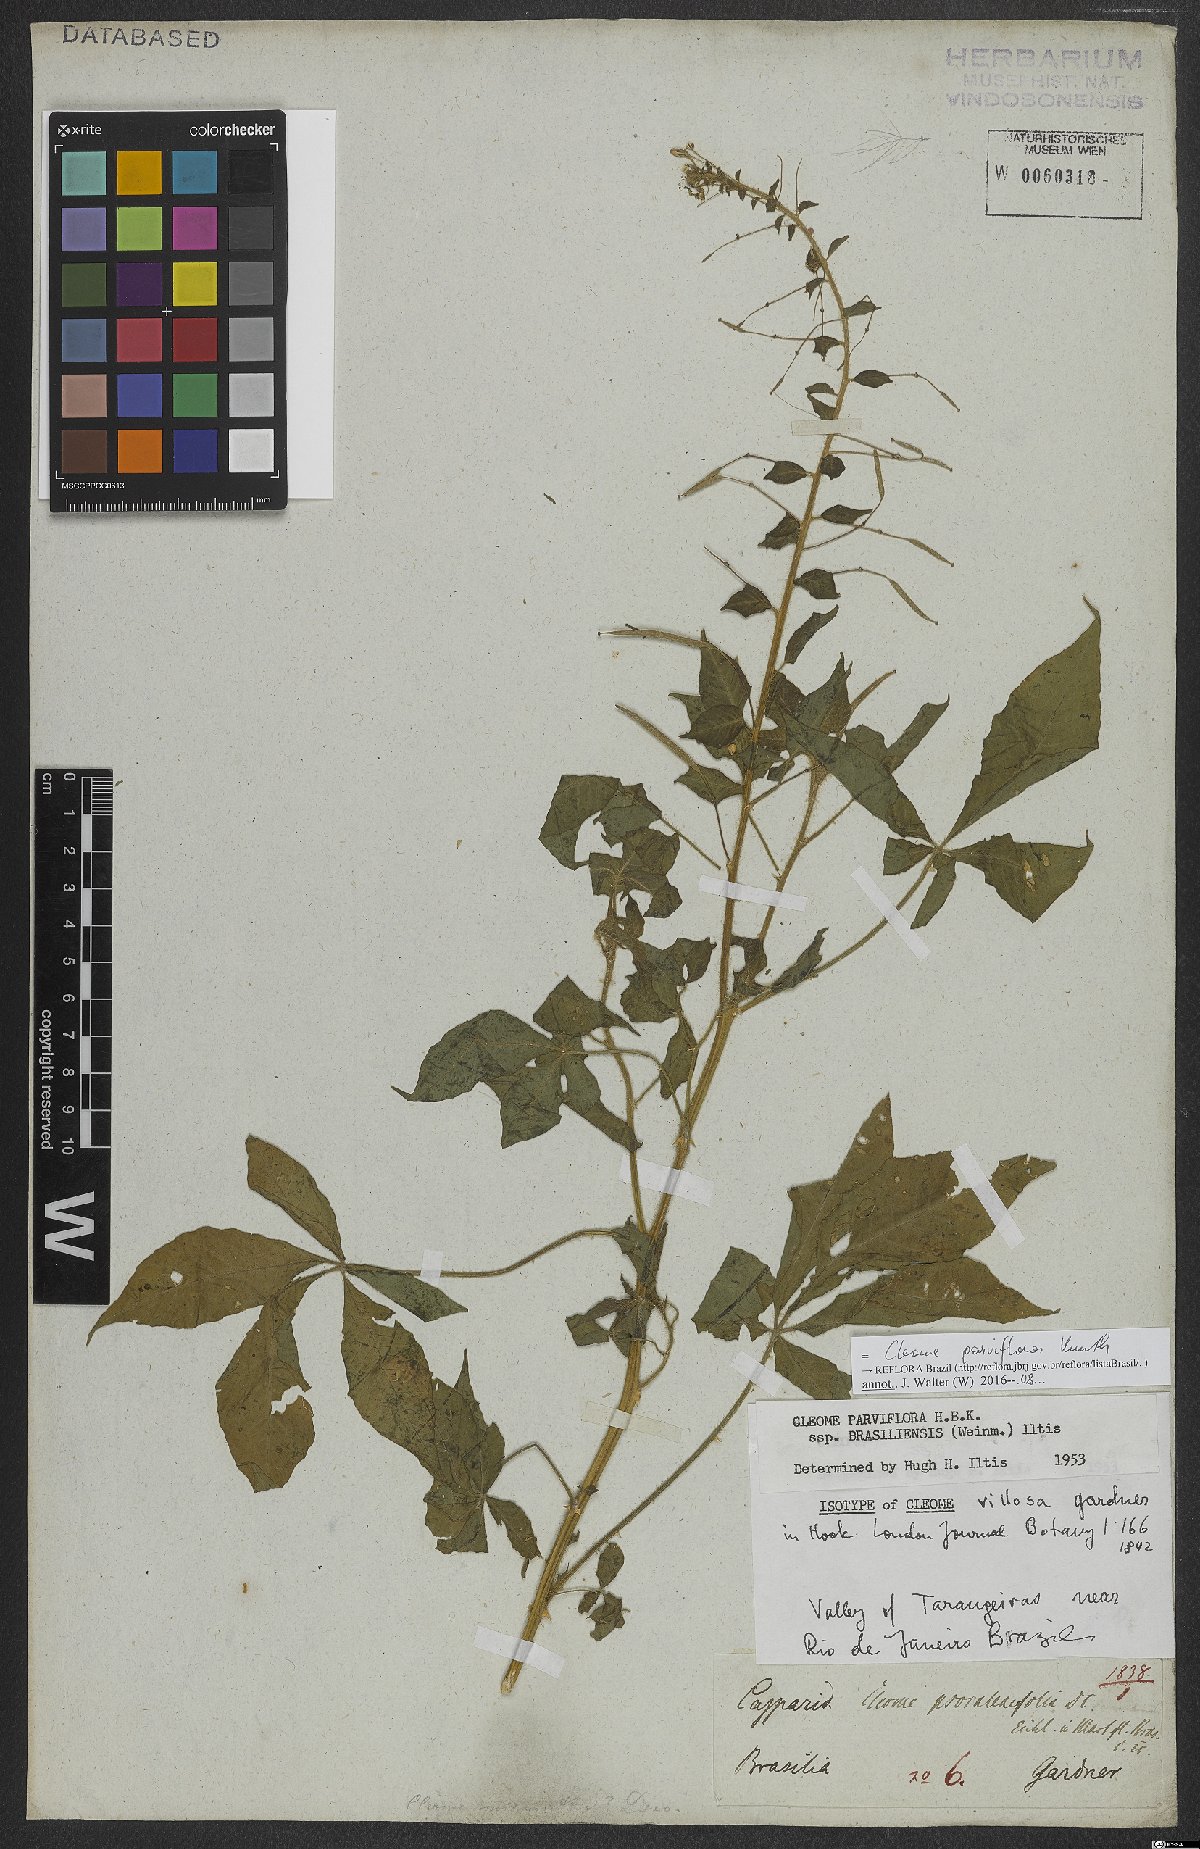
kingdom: Plantae
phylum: Tracheophyta
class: Magnoliopsida
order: Brassicales
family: Cleomaceae
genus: Tarenaya
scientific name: Tarenaya parviflora
